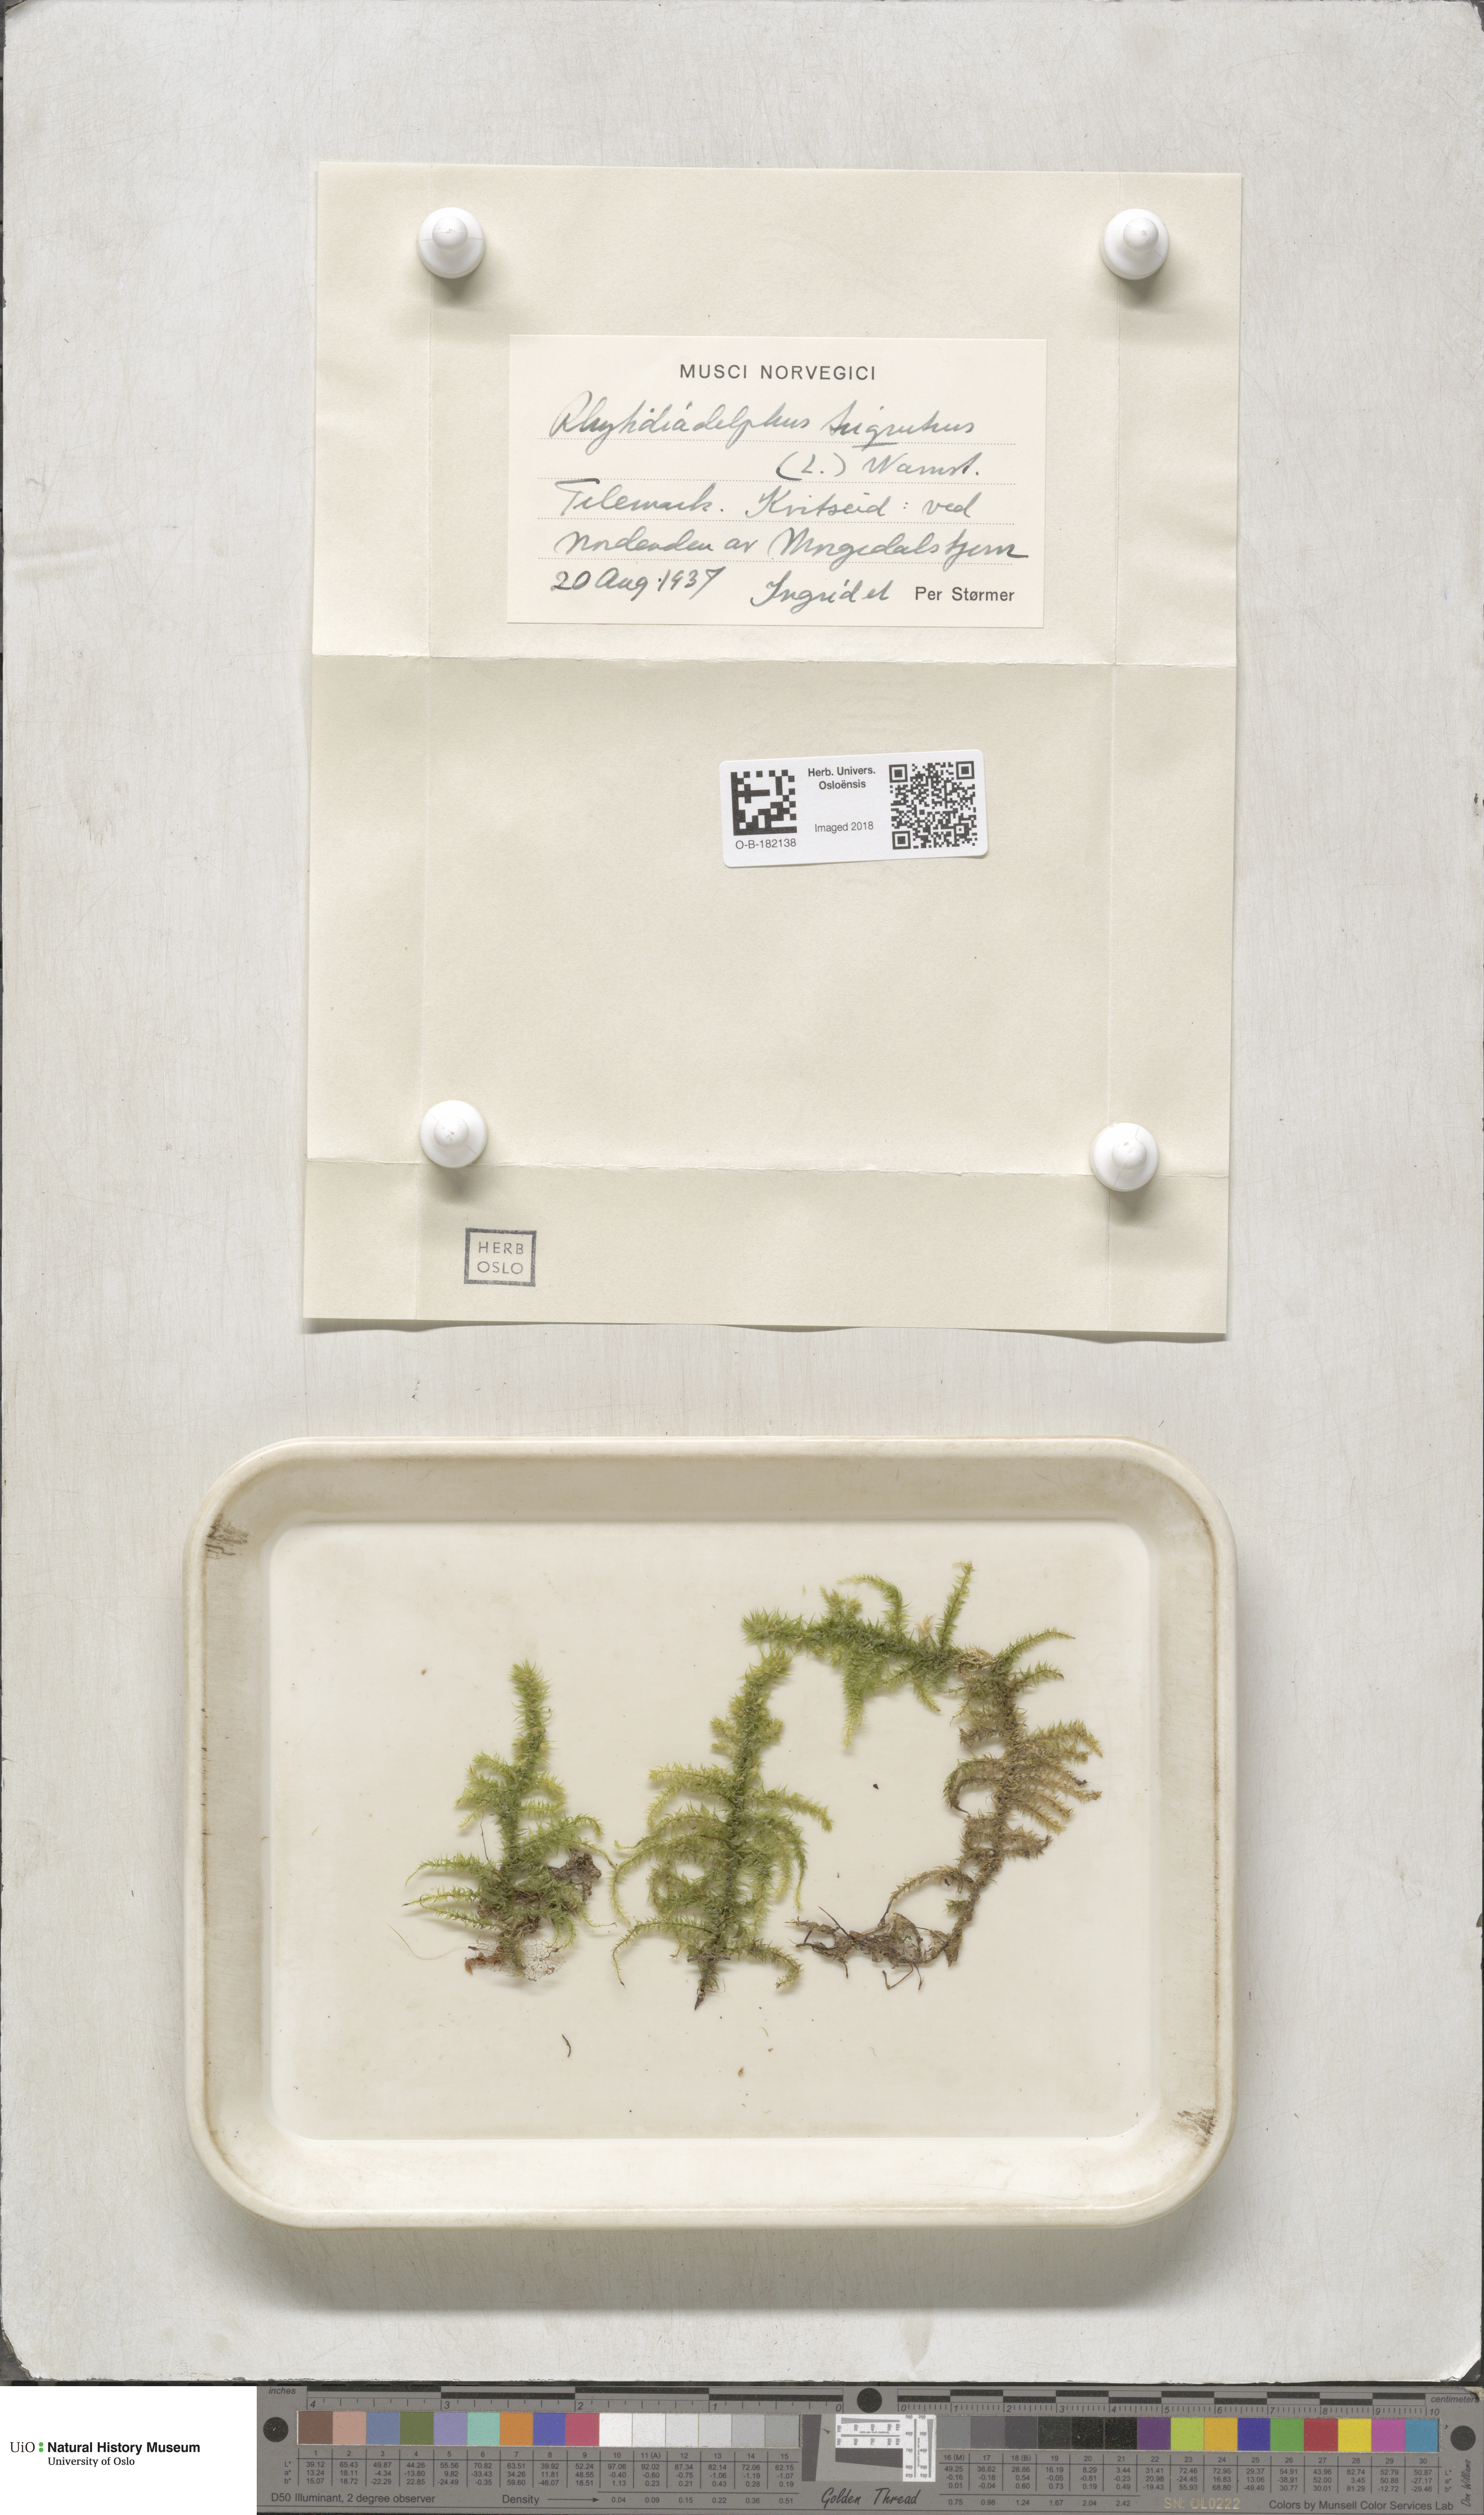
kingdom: Plantae
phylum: Bryophyta
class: Bryopsida
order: Hypnales
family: Hylocomiaceae
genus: Hylocomiadelphus
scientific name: Hylocomiadelphus triquetrus
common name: Rough goose neck moss
